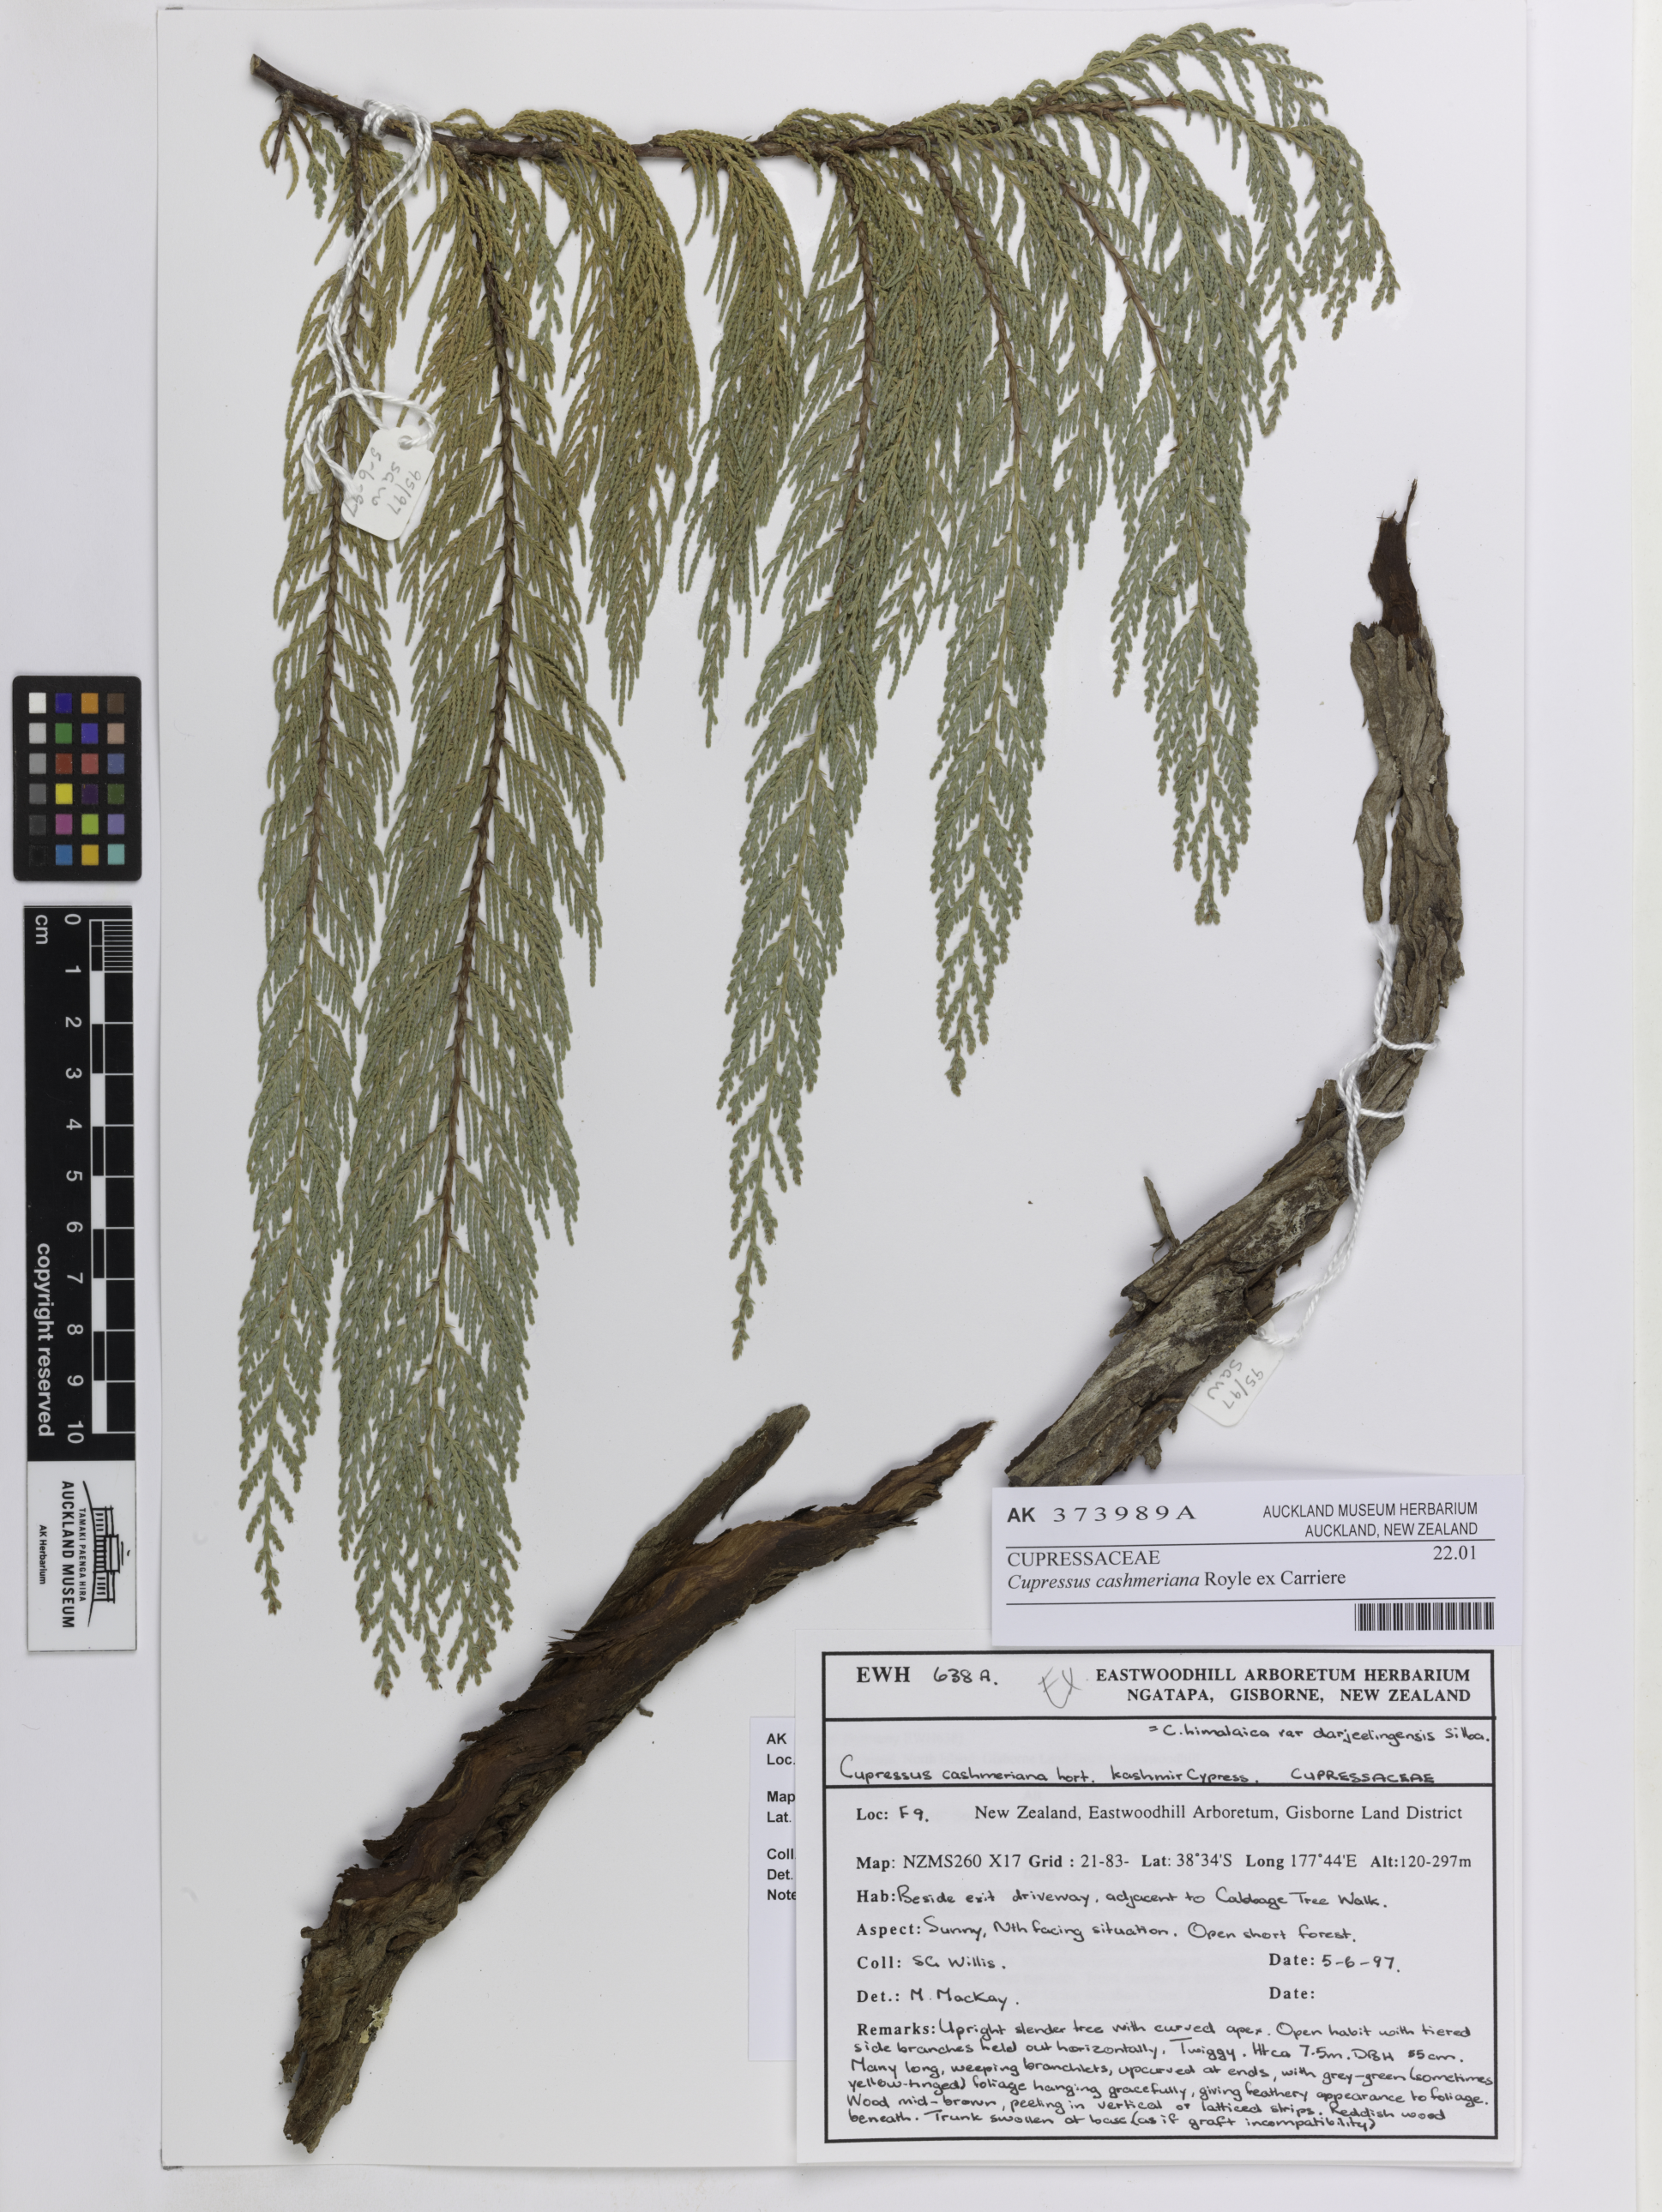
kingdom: Plantae
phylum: Tracheophyta
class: Pinopsida
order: Pinales
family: Cupressaceae
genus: Cupressus
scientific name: Cupressus cashmeriana
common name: Bhutan cypress
